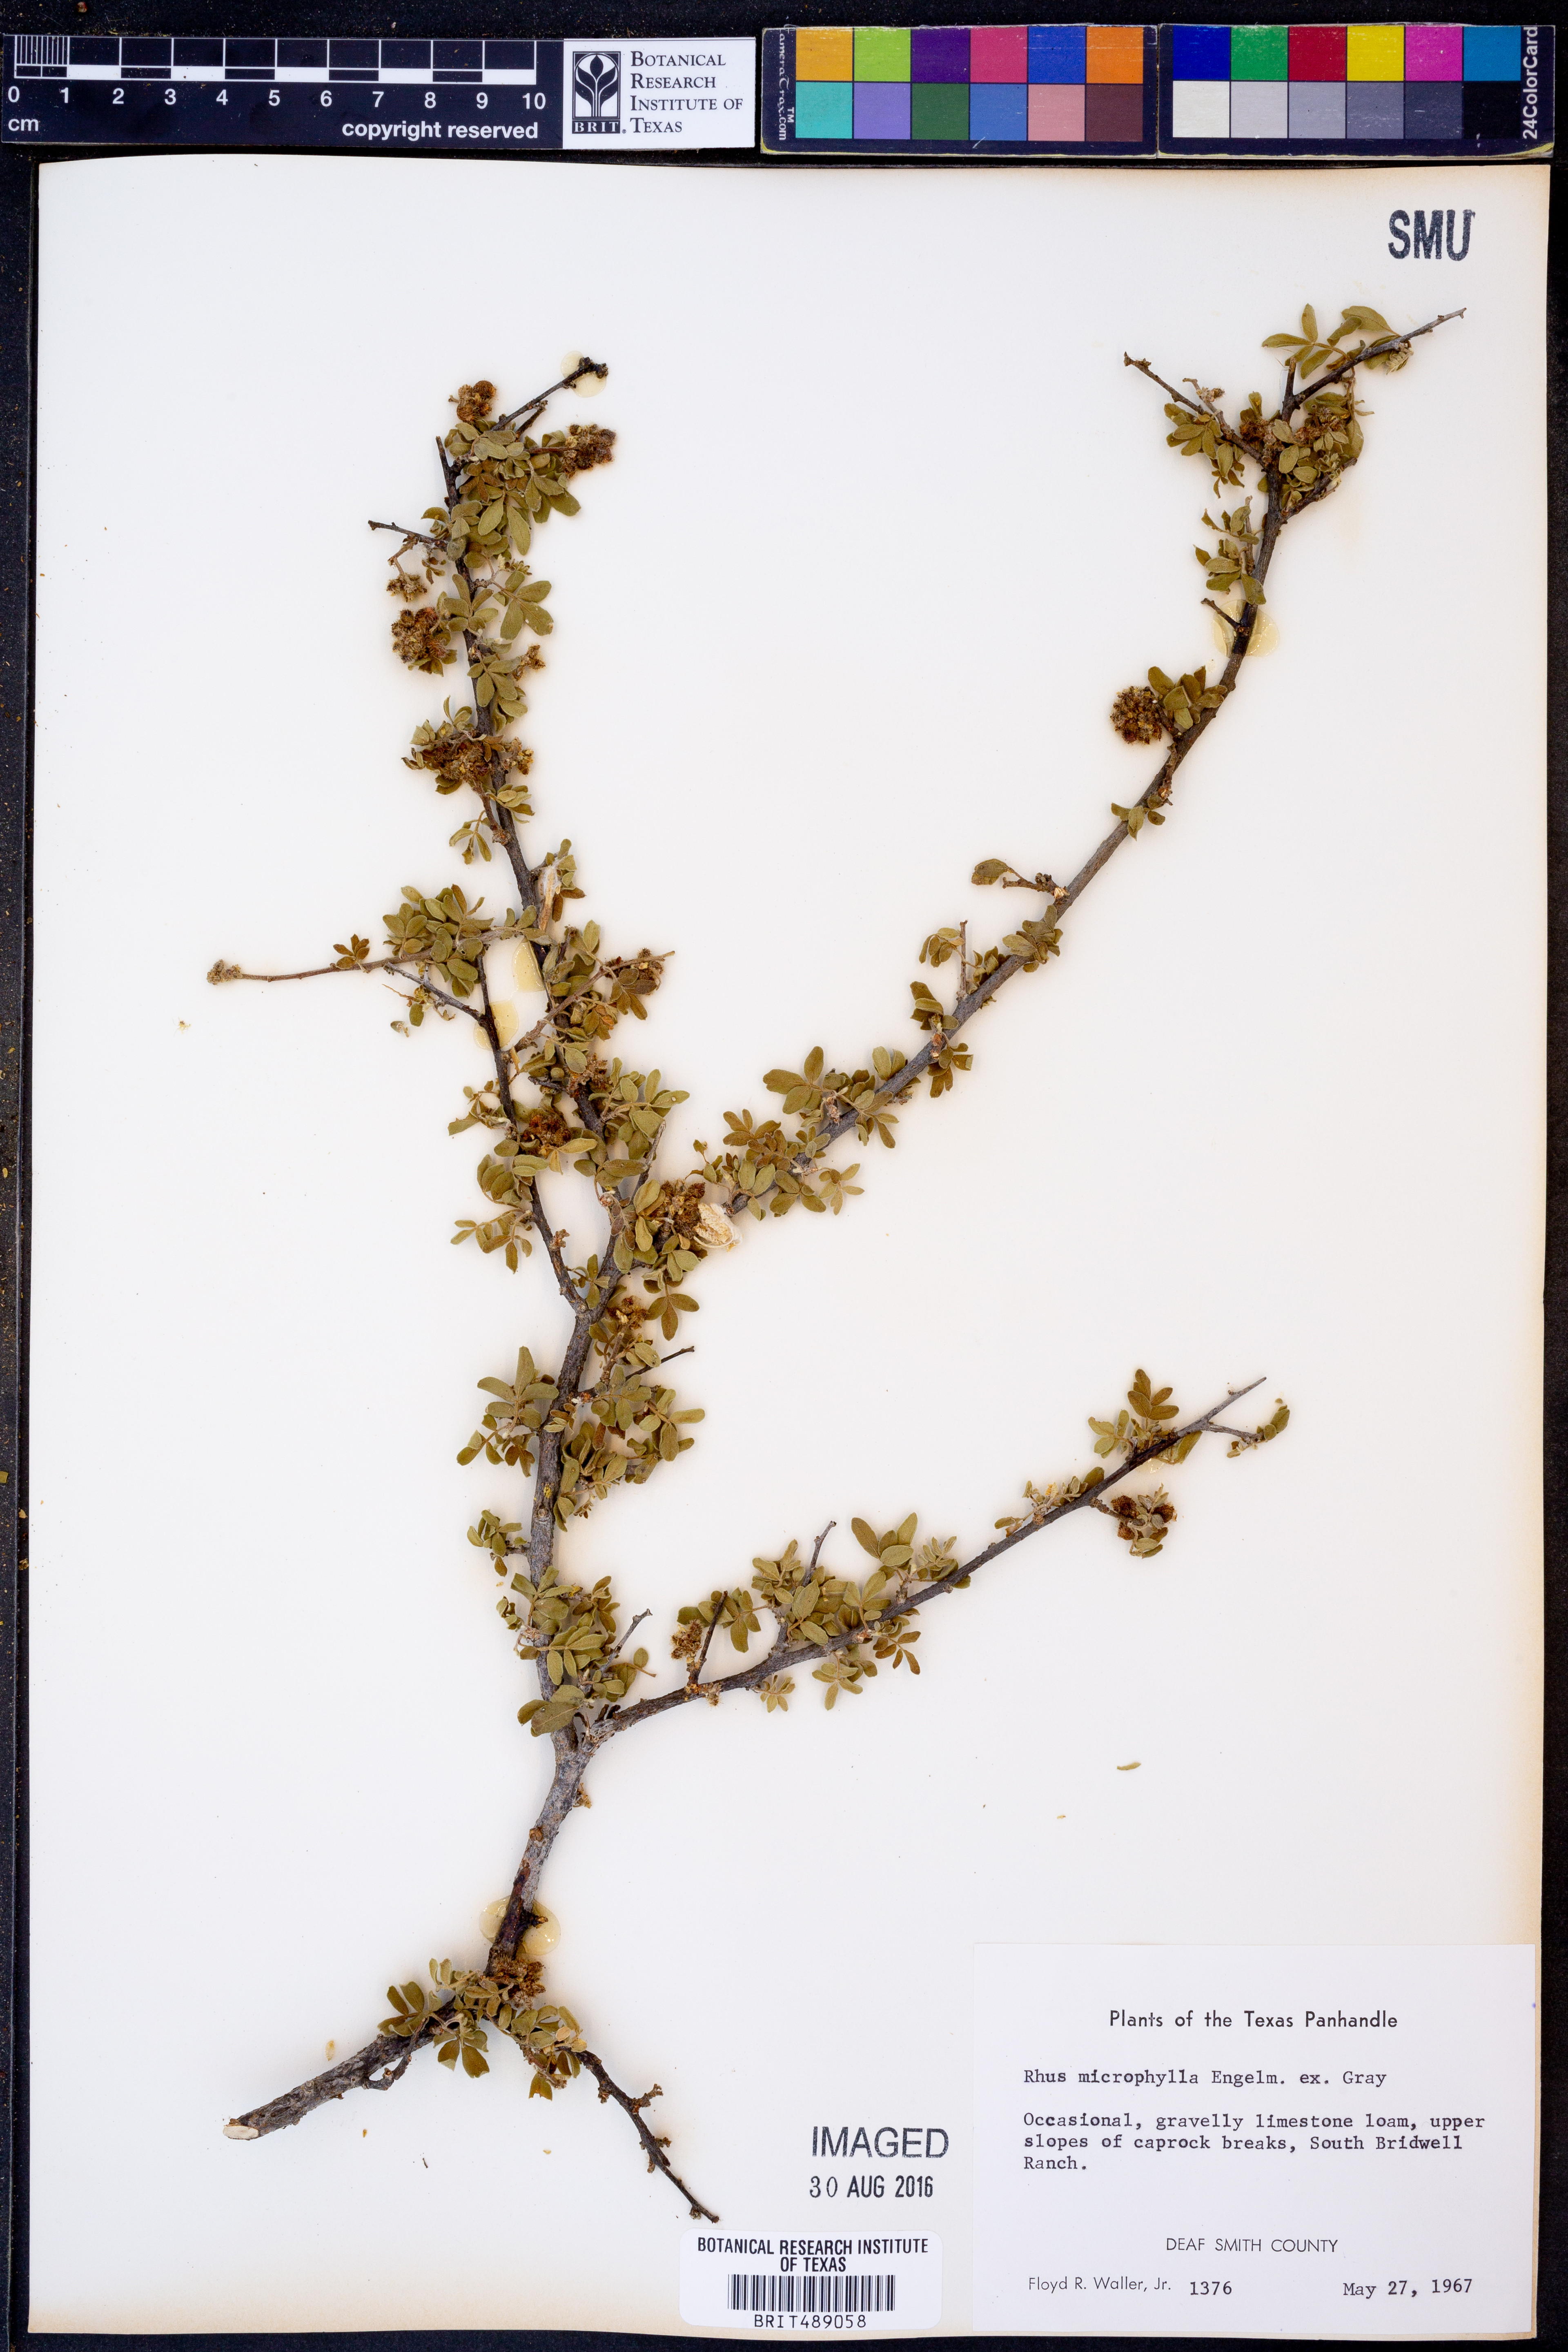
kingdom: Plantae
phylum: Tracheophyta
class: Magnoliopsida
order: Sapindales
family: Anacardiaceae
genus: Rhus
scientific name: Rhus microphylla
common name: Desert sumac
